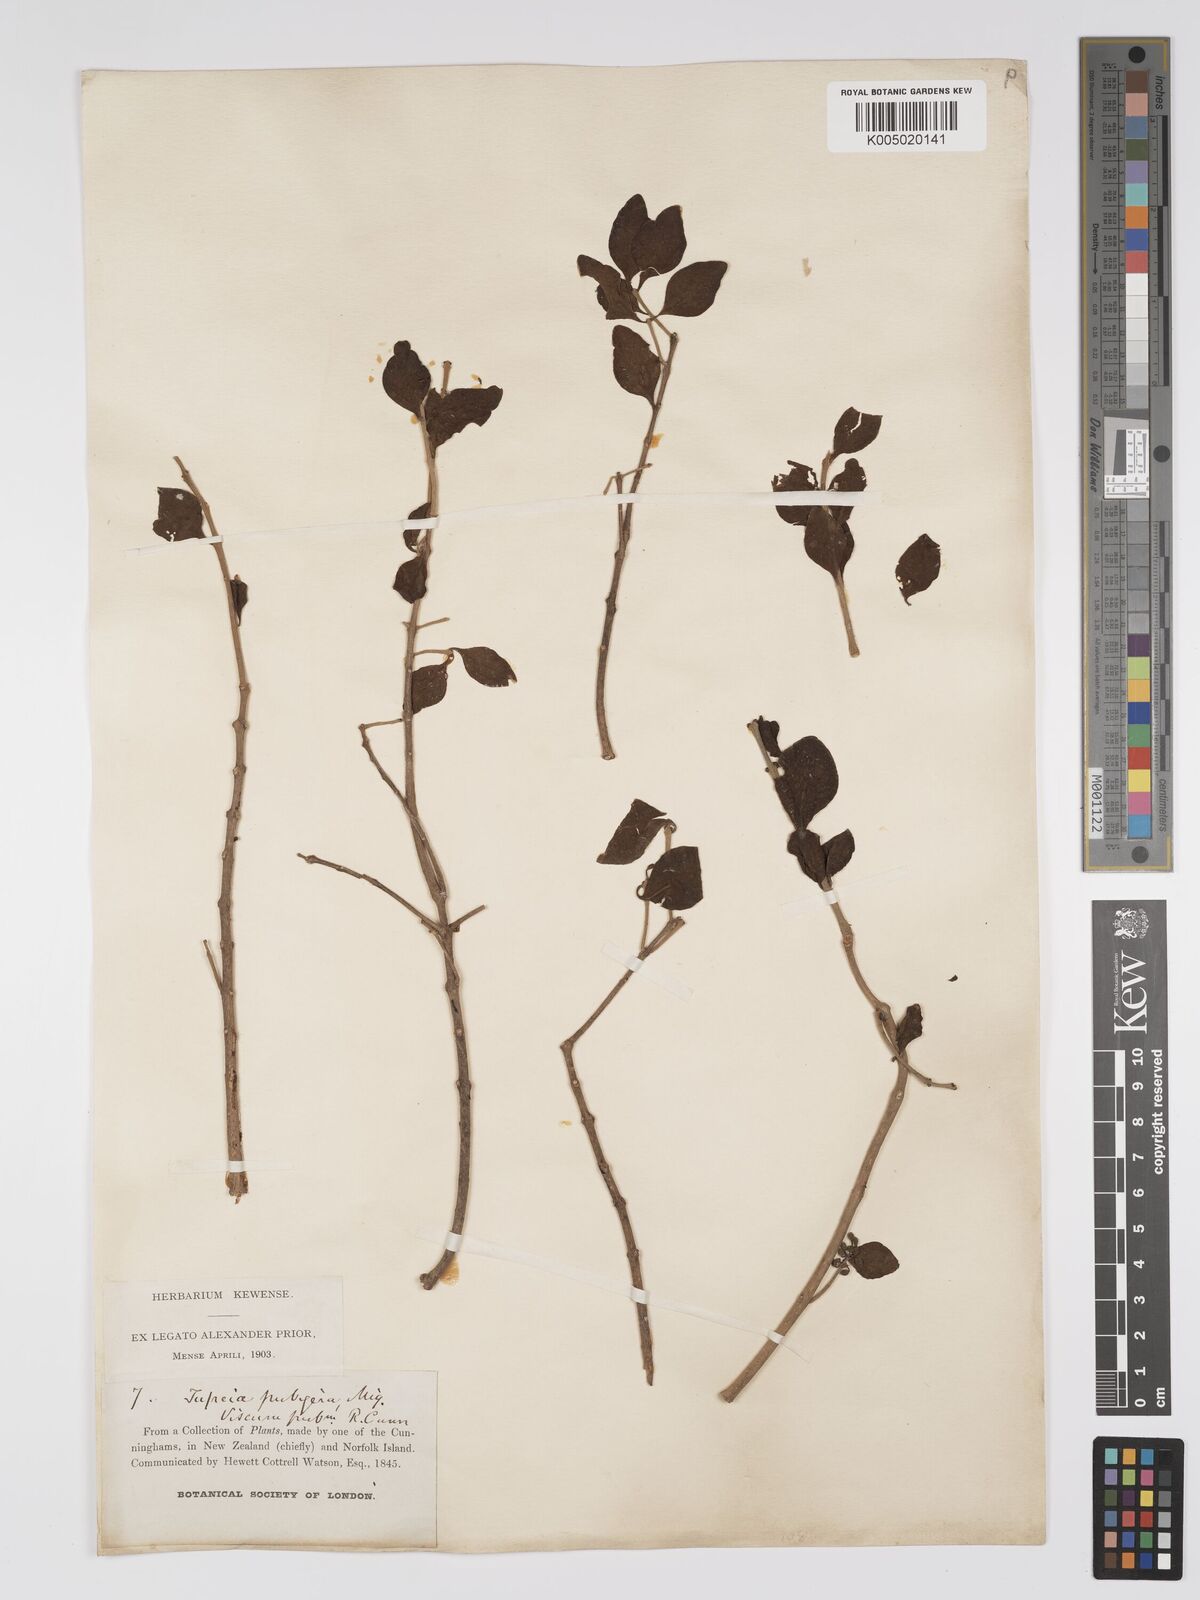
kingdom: Plantae
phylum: Tracheophyta
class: Magnoliopsida
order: Santalales
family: Loranthaceae
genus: Tupeia
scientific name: Tupeia antarctica
